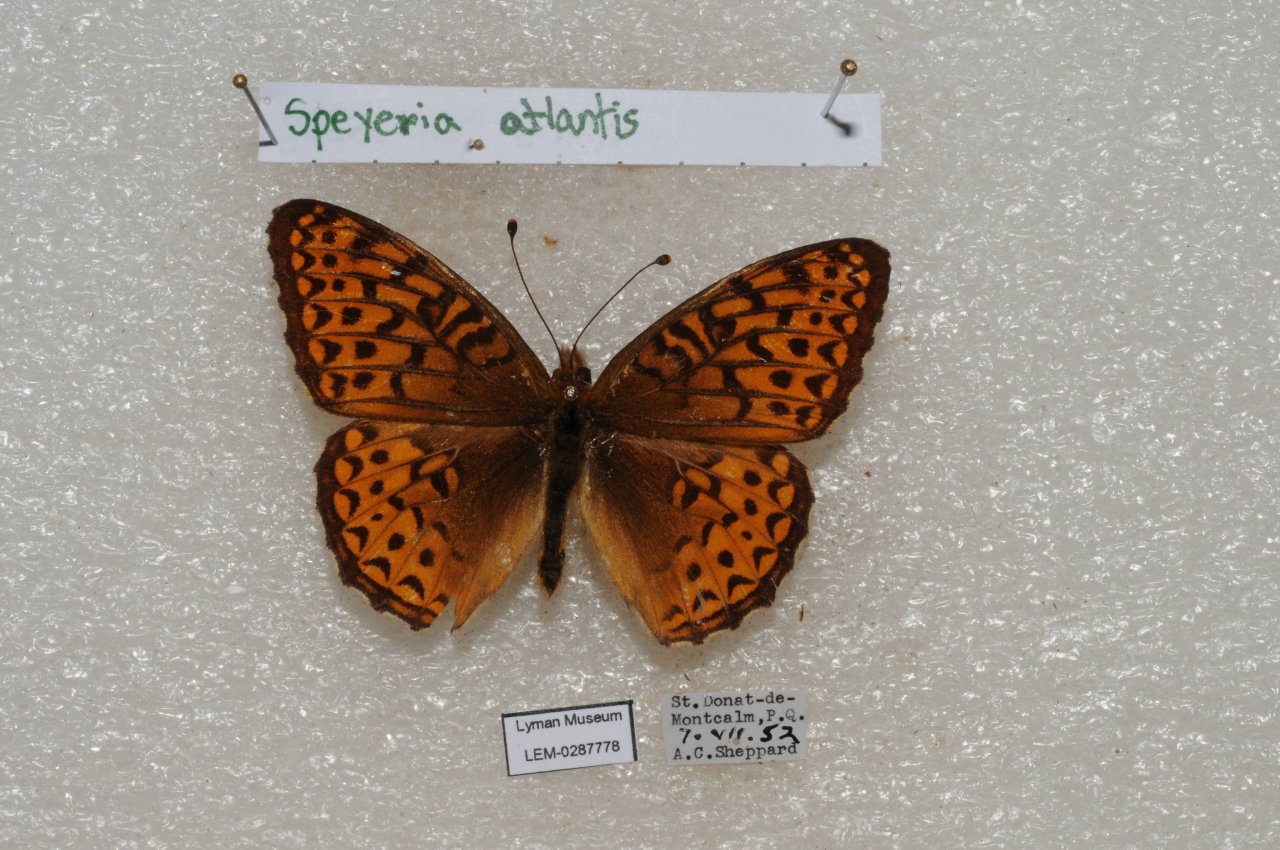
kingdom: Animalia
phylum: Arthropoda
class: Insecta
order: Lepidoptera
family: Nymphalidae
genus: Speyeria
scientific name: Speyeria atlantis
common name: Atlantis Fritillary
